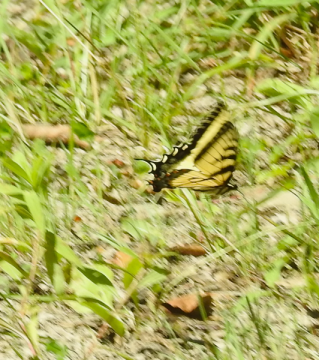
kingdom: Animalia
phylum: Arthropoda
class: Insecta
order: Lepidoptera
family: Papilionidae
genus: Pterourus
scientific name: Pterourus glaucus
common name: Eastern Tiger Swallowtail
